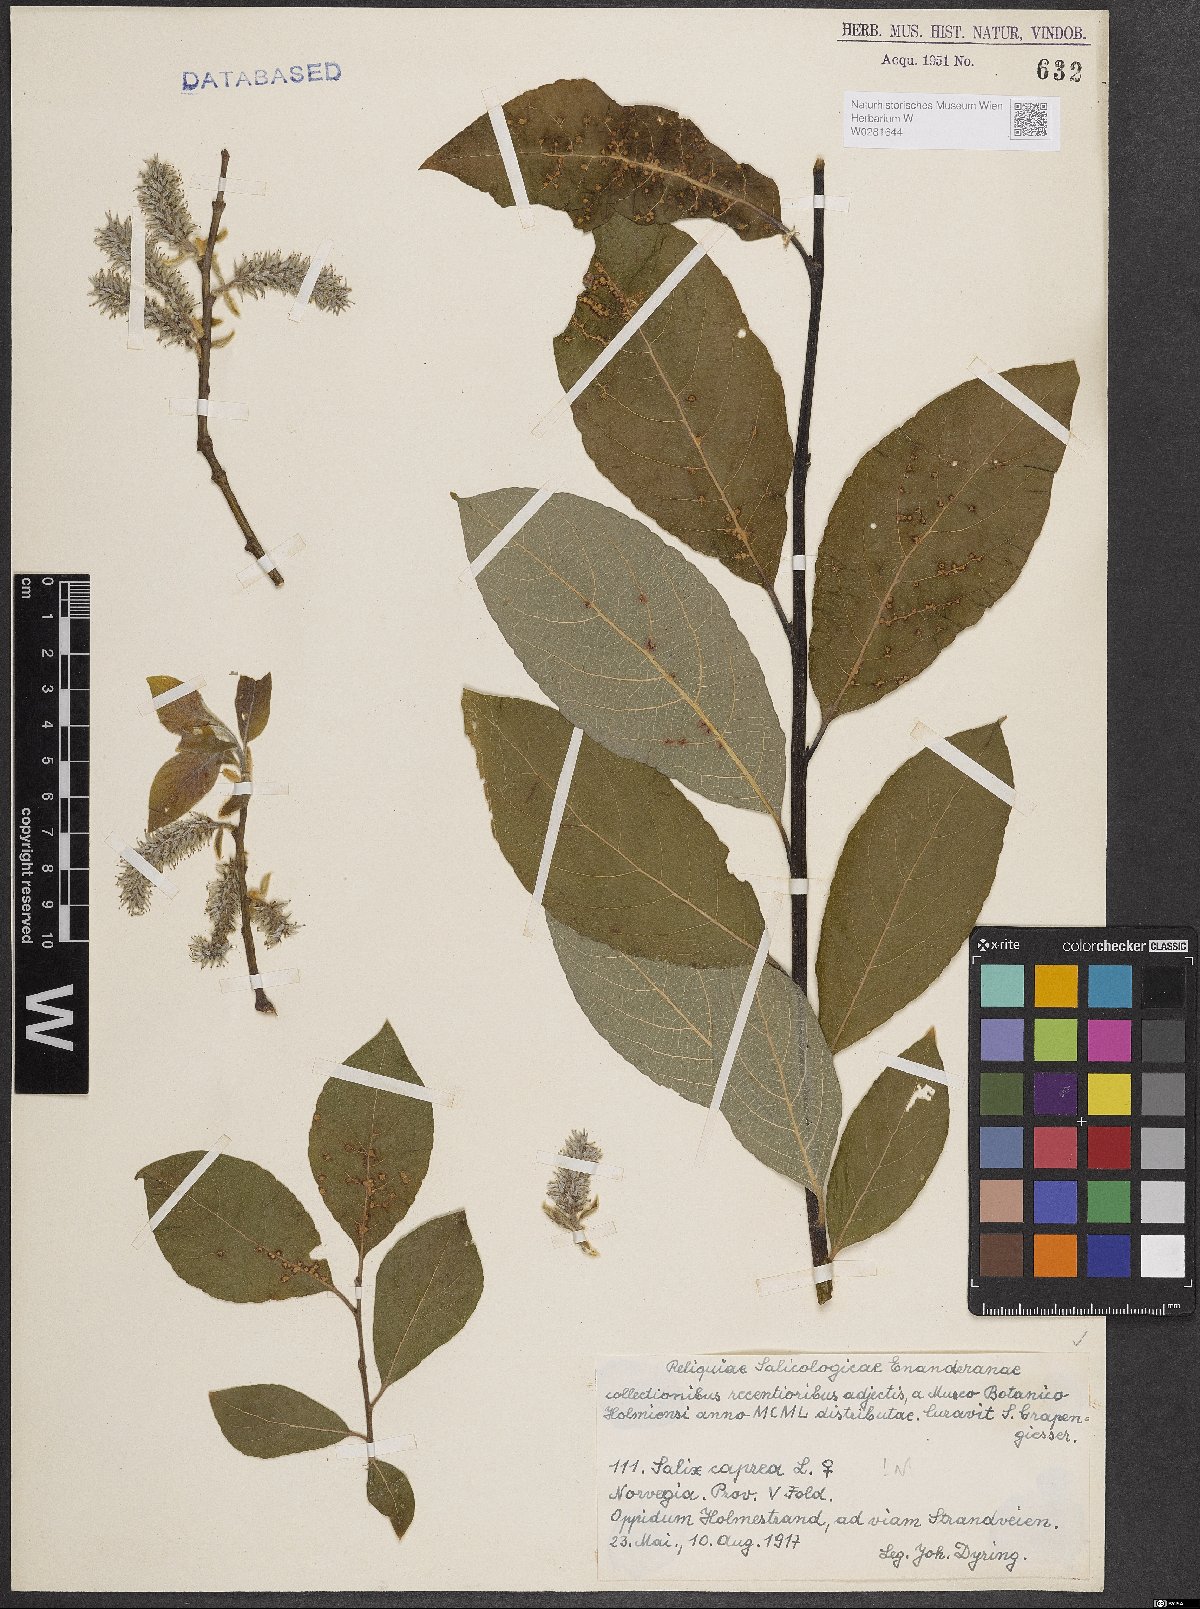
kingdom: Plantae
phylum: Tracheophyta
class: Magnoliopsida
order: Malpighiales
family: Salicaceae
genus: Salix
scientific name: Salix caprea
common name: Goat willow
